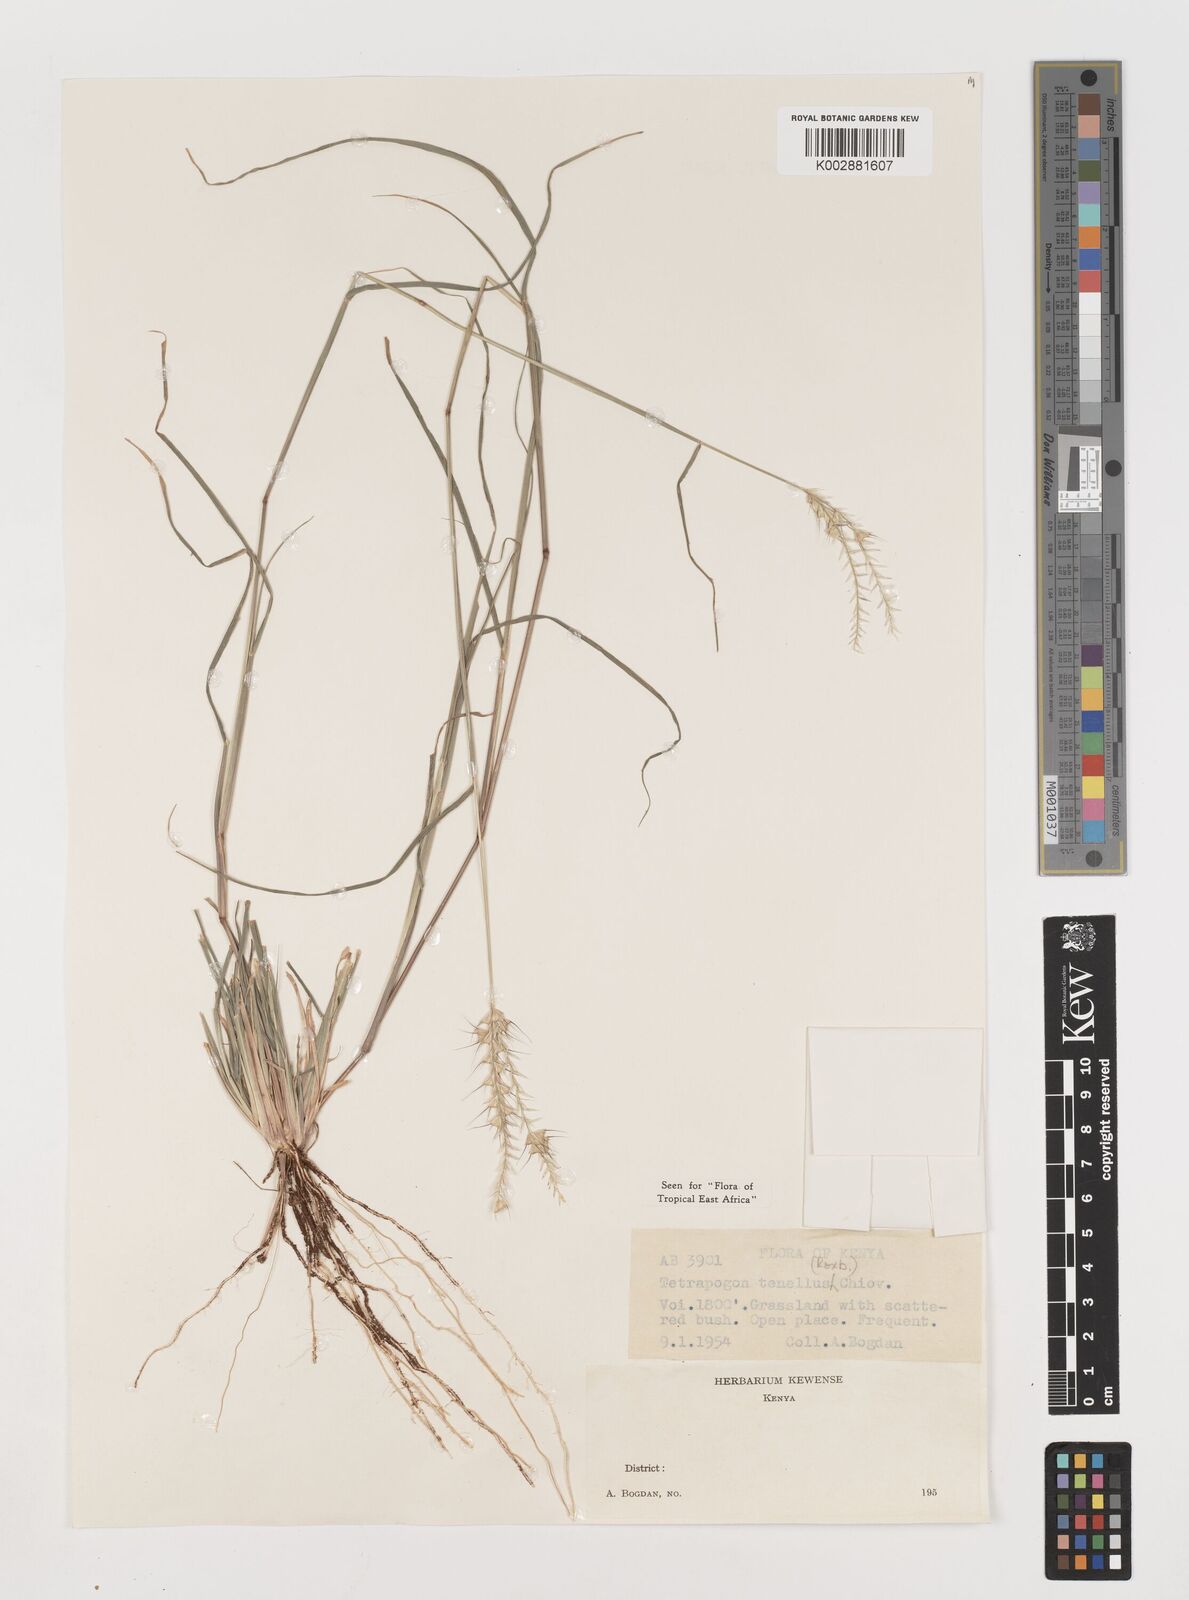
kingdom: Plantae
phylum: Tracheophyta
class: Liliopsida
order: Poales
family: Poaceae
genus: Tetrapogon
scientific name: Tetrapogon tenellus
